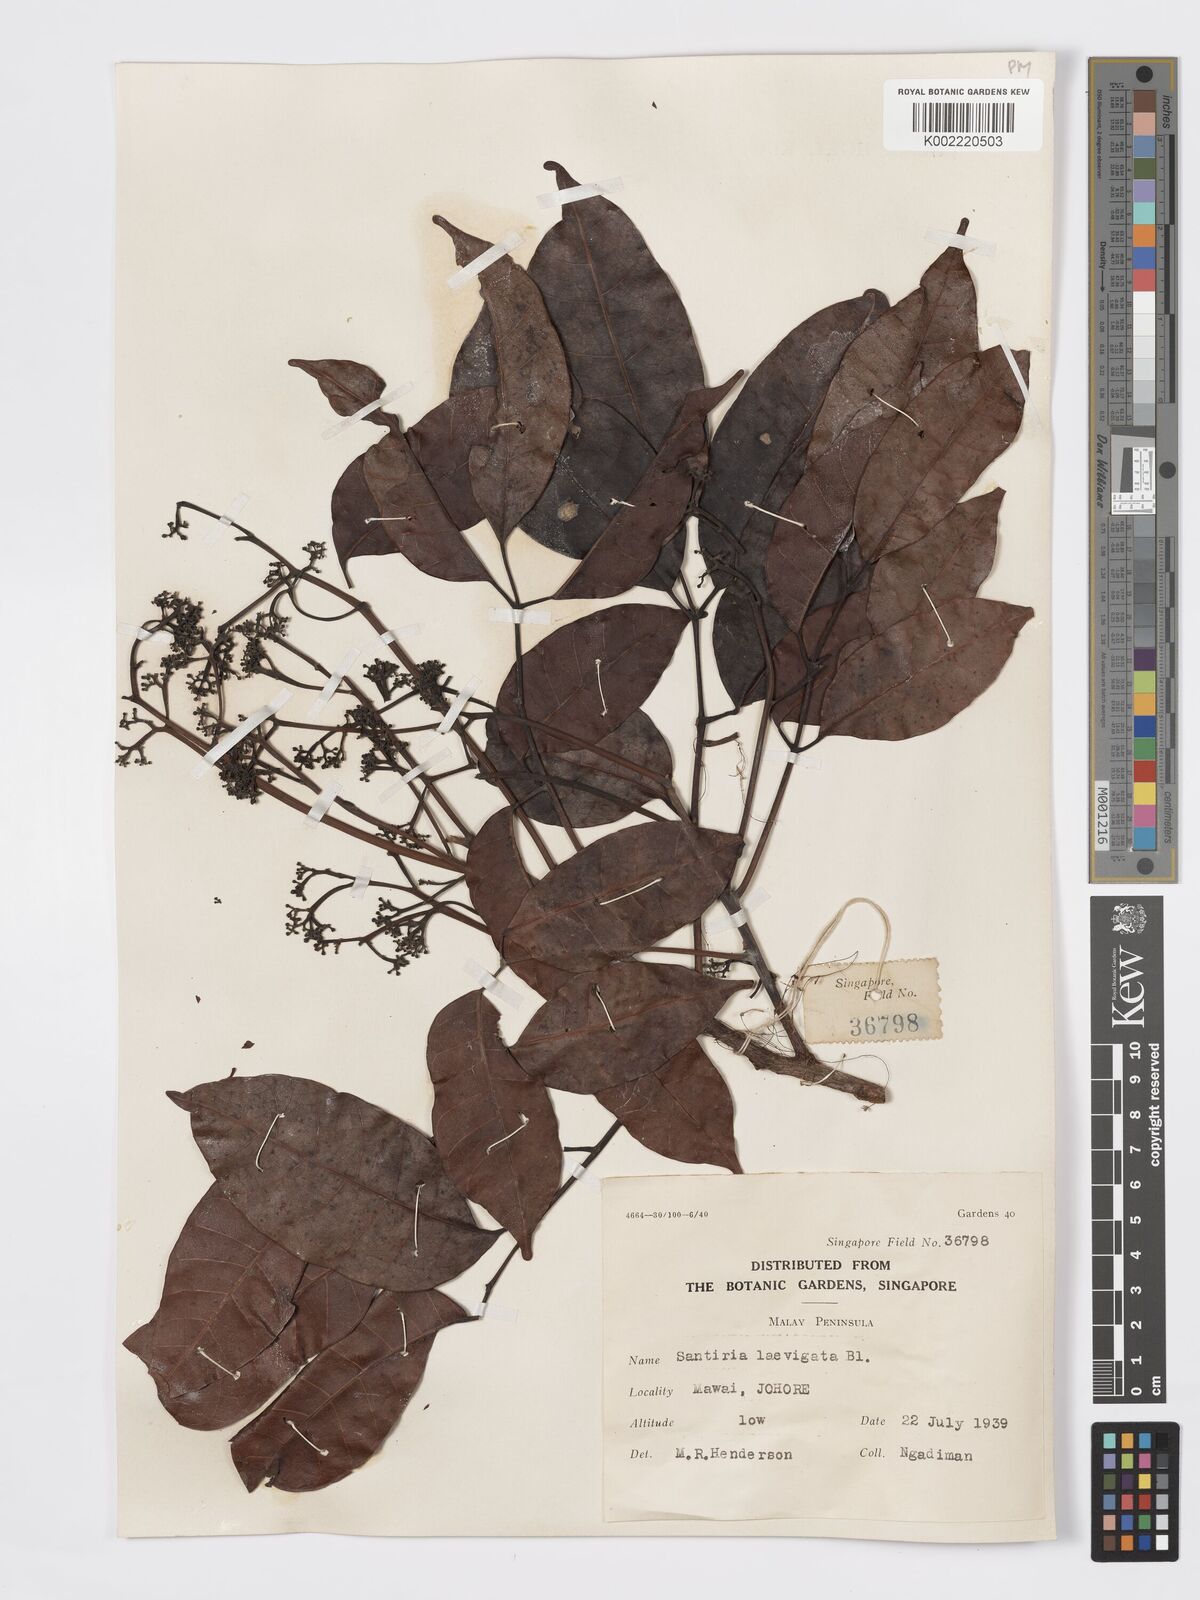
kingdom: Plantae
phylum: Tracheophyta
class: Magnoliopsida
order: Sapindales
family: Burseraceae
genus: Santiria
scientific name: Santiria laevigata
